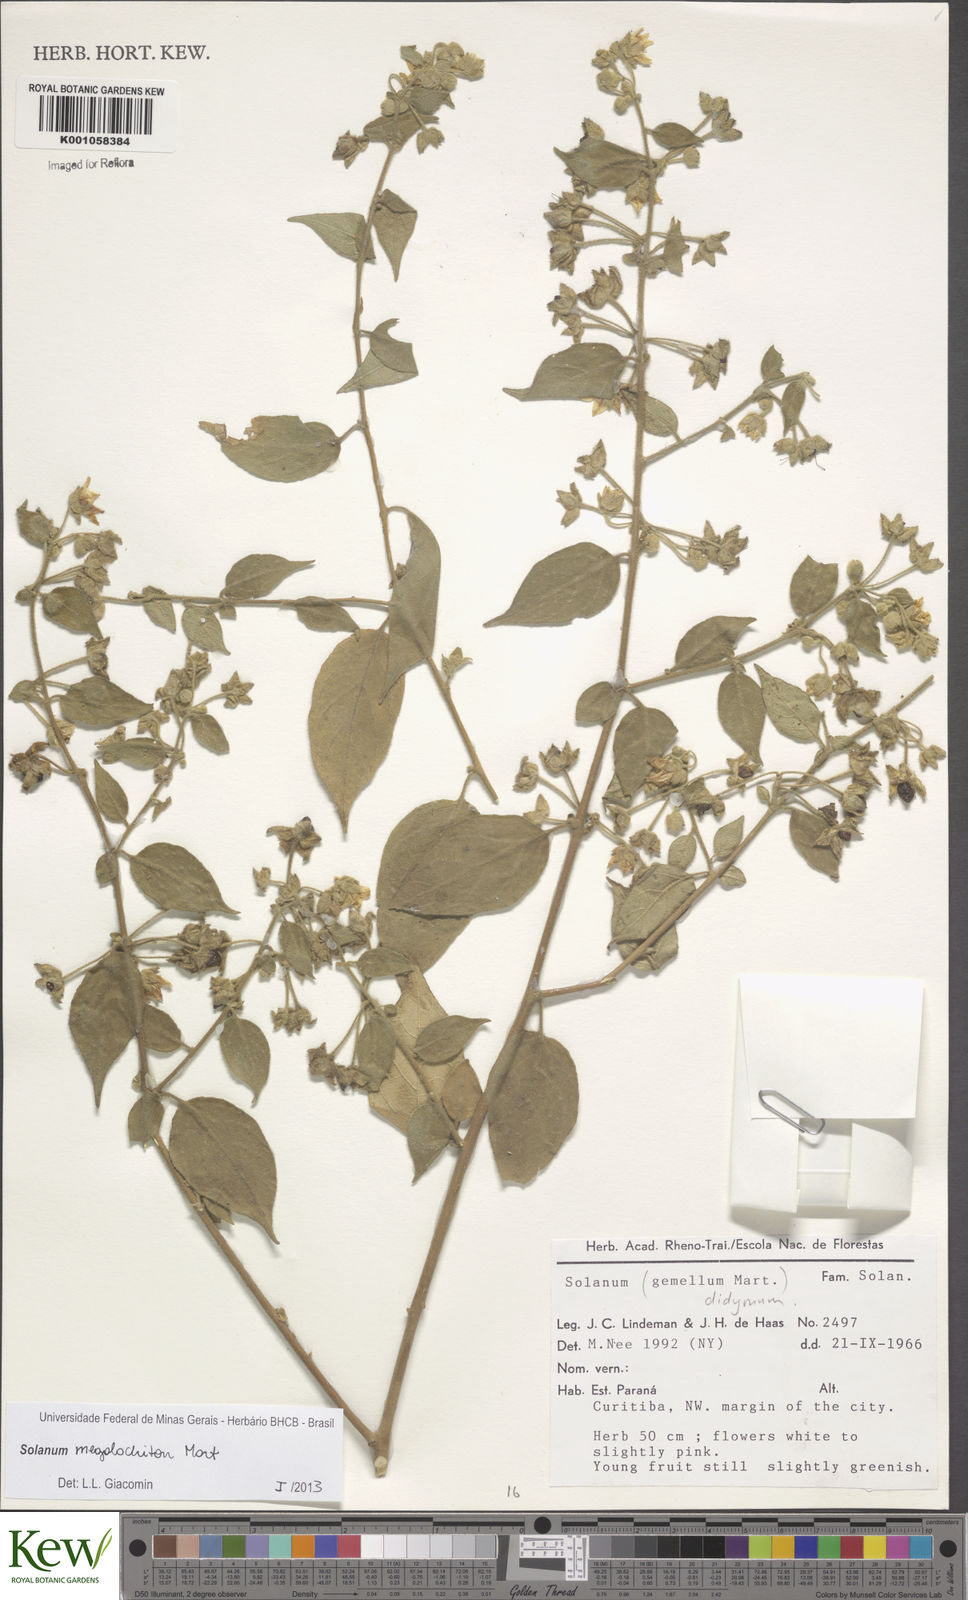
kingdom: Plantae
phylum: Tracheophyta
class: Magnoliopsida
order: Solanales
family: Solanaceae
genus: Solanum
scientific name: Solanum didymum
